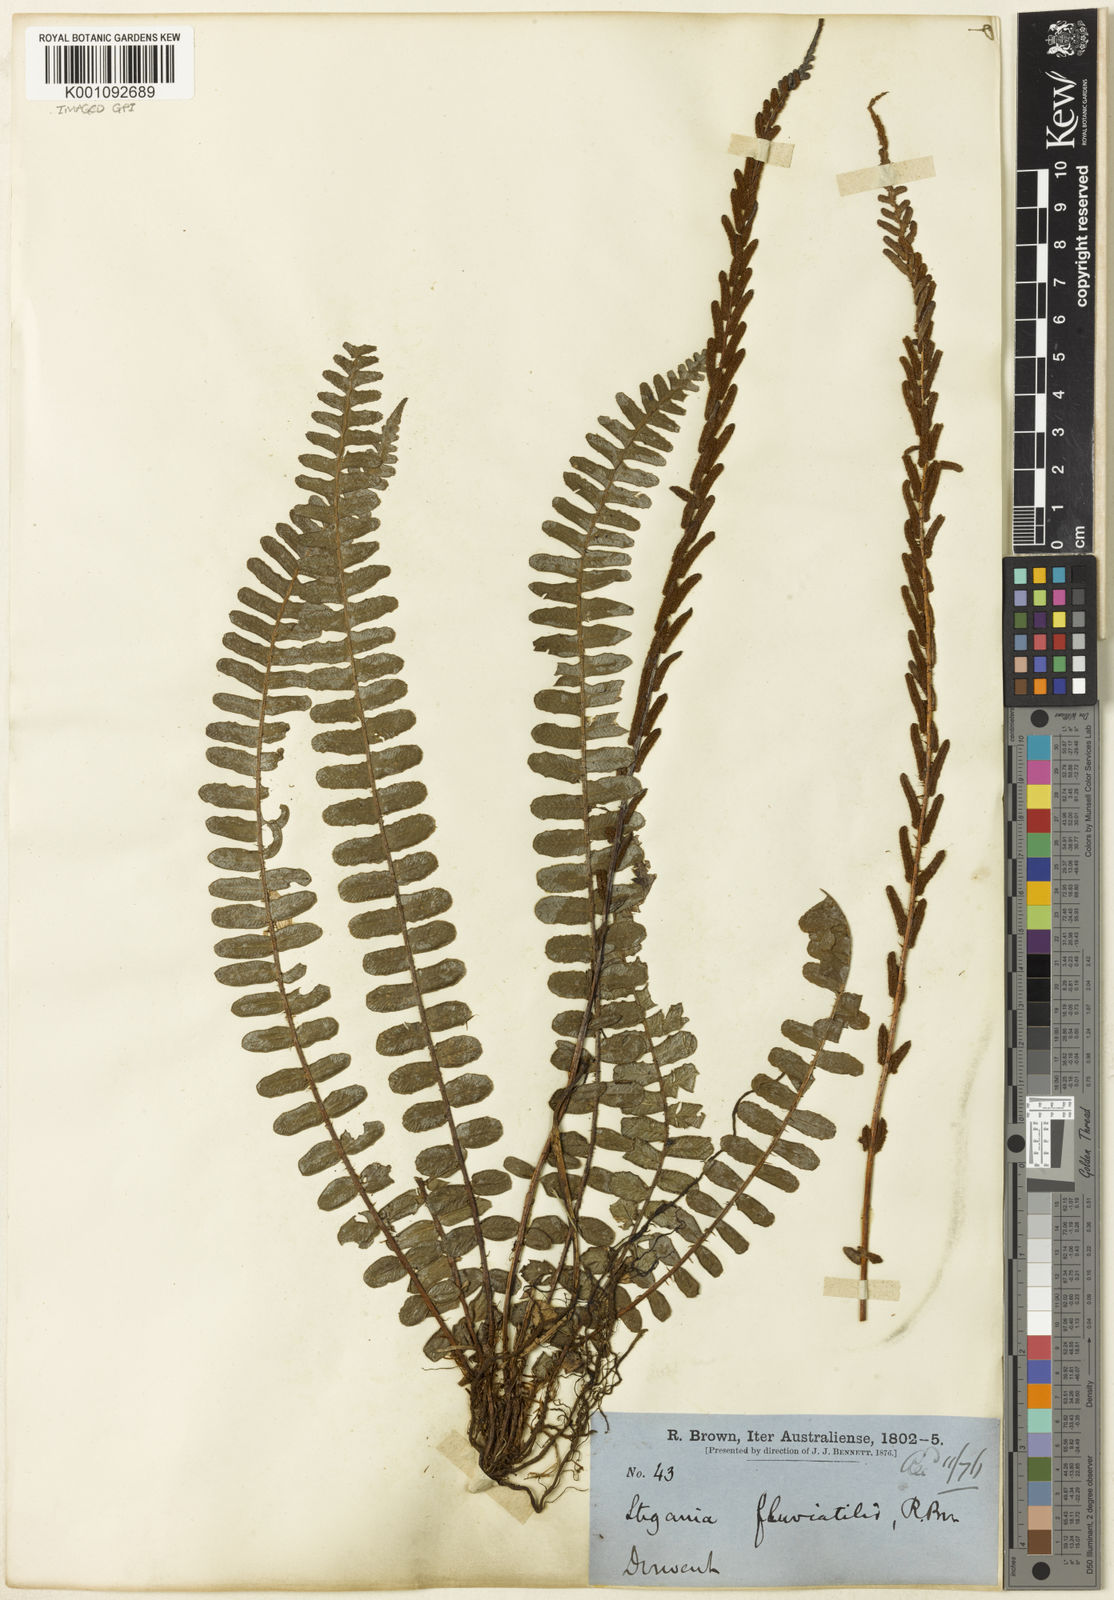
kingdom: Plantae
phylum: Tracheophyta
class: Polypodiopsida
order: Polypodiales
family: Blechnaceae
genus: Cranfillia
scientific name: Cranfillia fluviatilis
